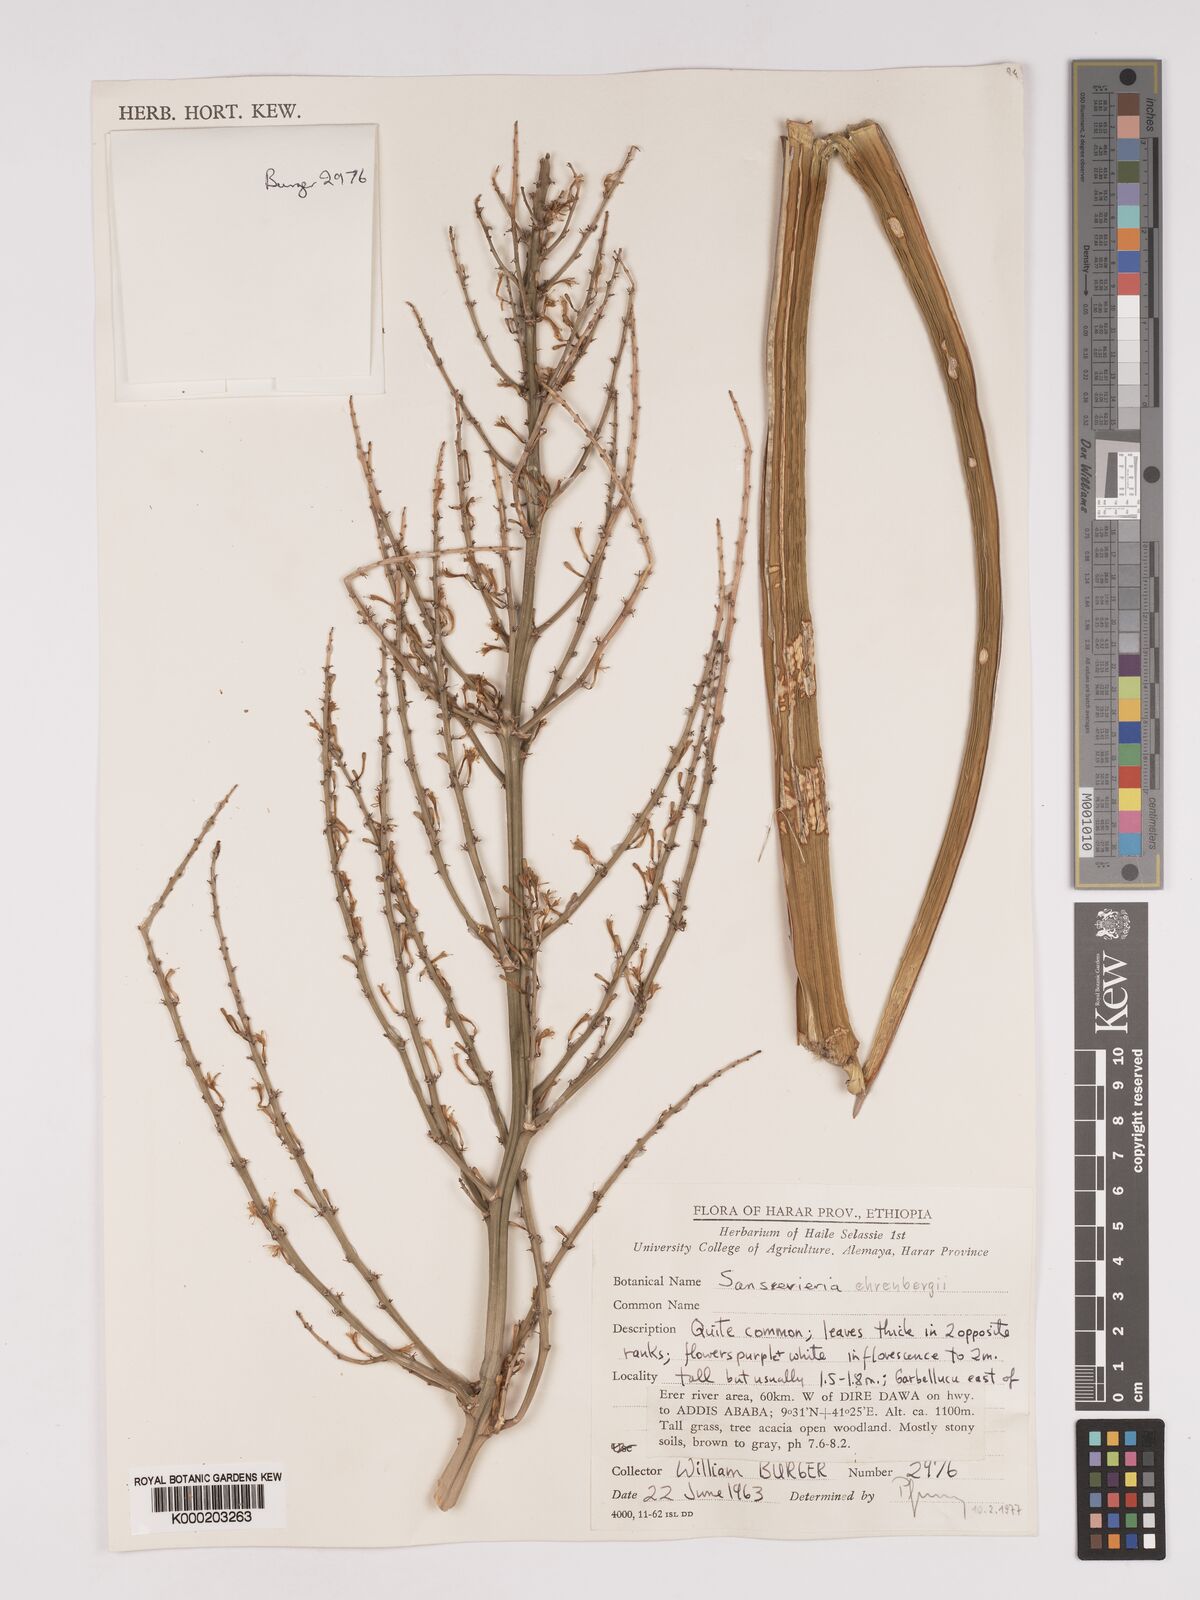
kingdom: Plantae
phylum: Tracheophyta
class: Liliopsida
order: Asparagales
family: Asparagaceae
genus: Dracaena
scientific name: Dracaena hanningtonii
